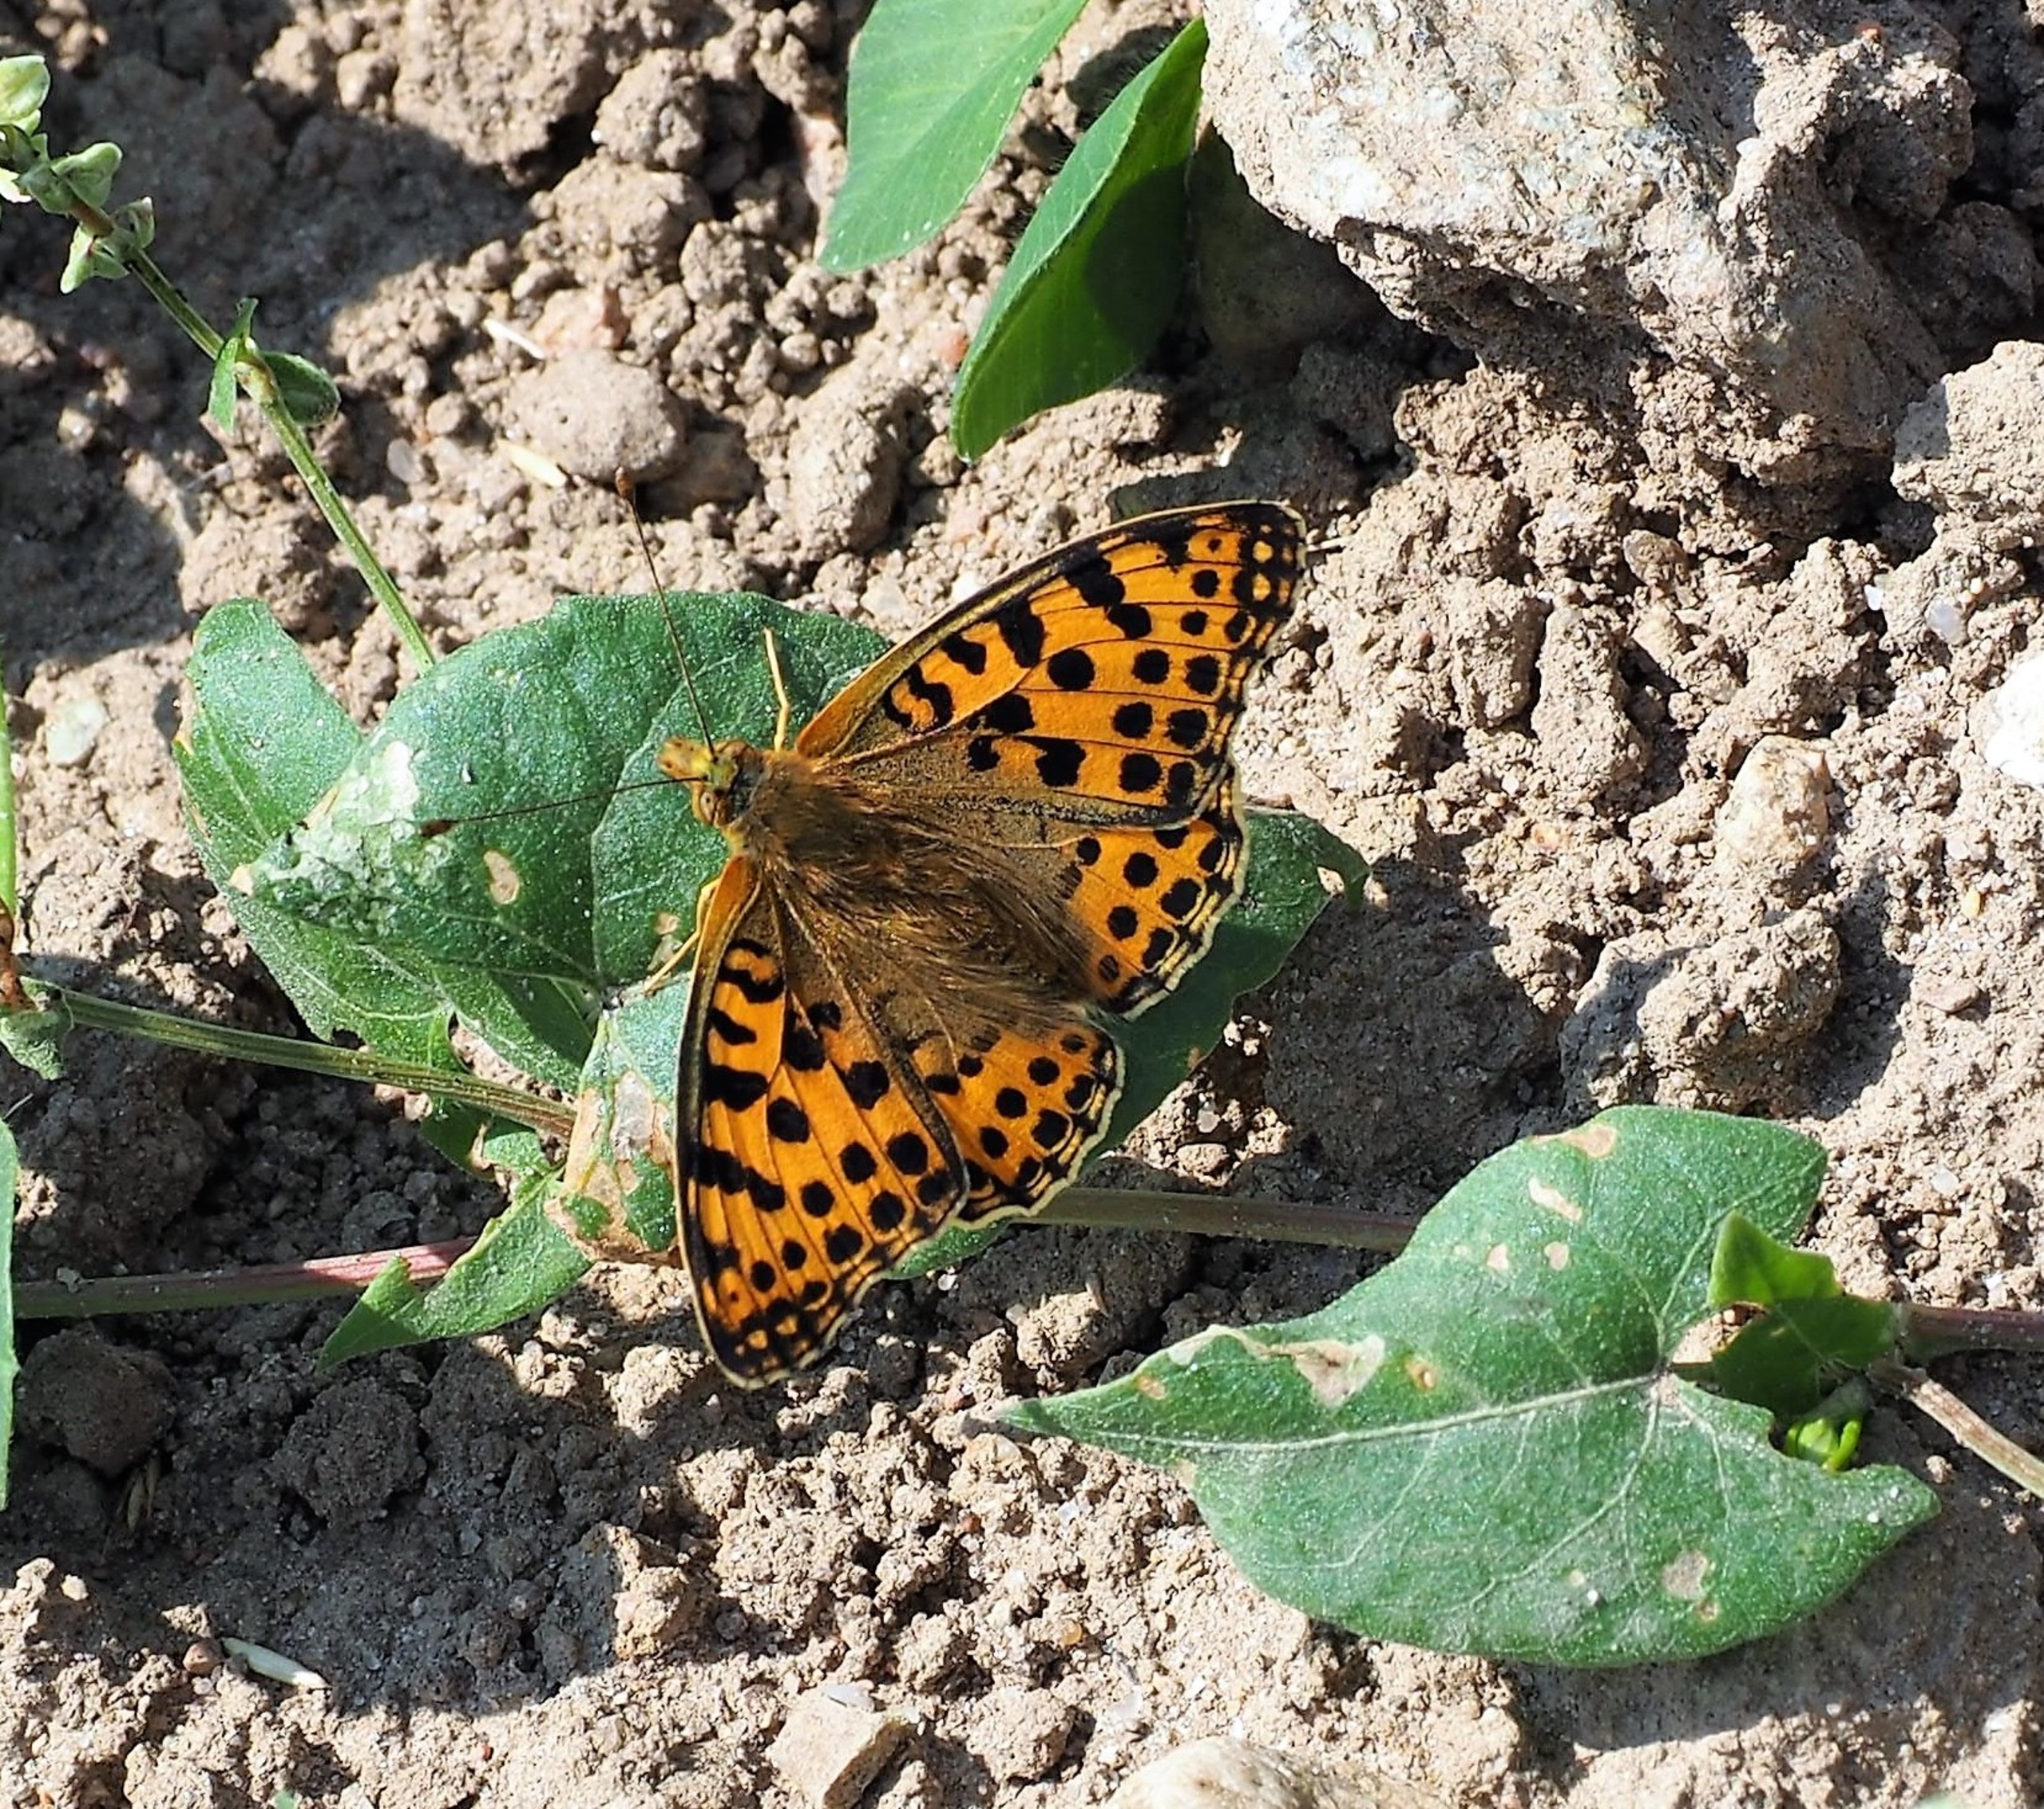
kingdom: Animalia
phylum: Arthropoda
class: Insecta
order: Lepidoptera
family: Nymphalidae
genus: Issoria
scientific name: Issoria lathonia
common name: Storplettet perlemorsommerfugl
